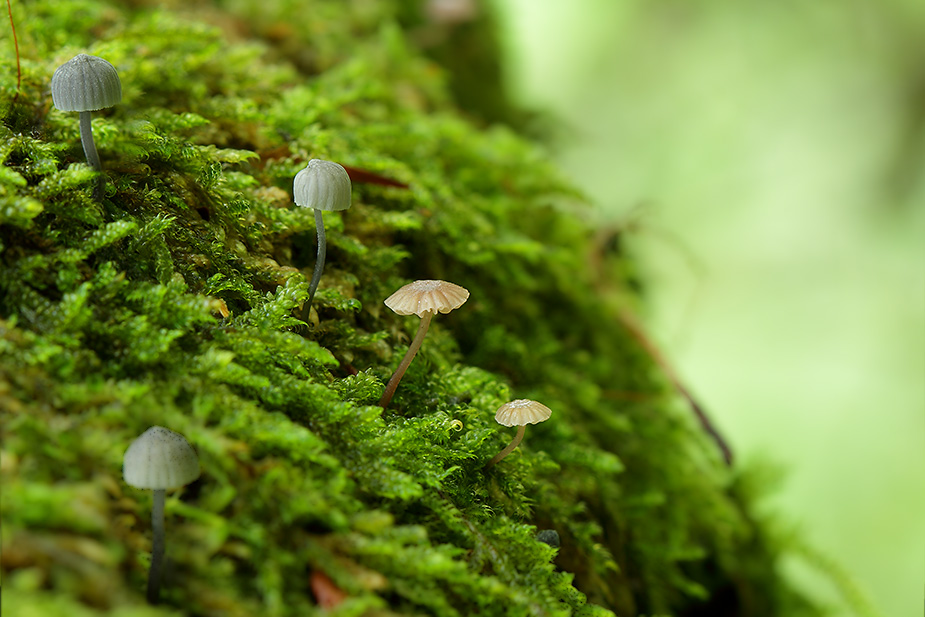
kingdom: Fungi
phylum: Basidiomycota
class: Agaricomycetes
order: Agaricales
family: Mycenaceae
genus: Mycena
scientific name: Mycena meliigena
